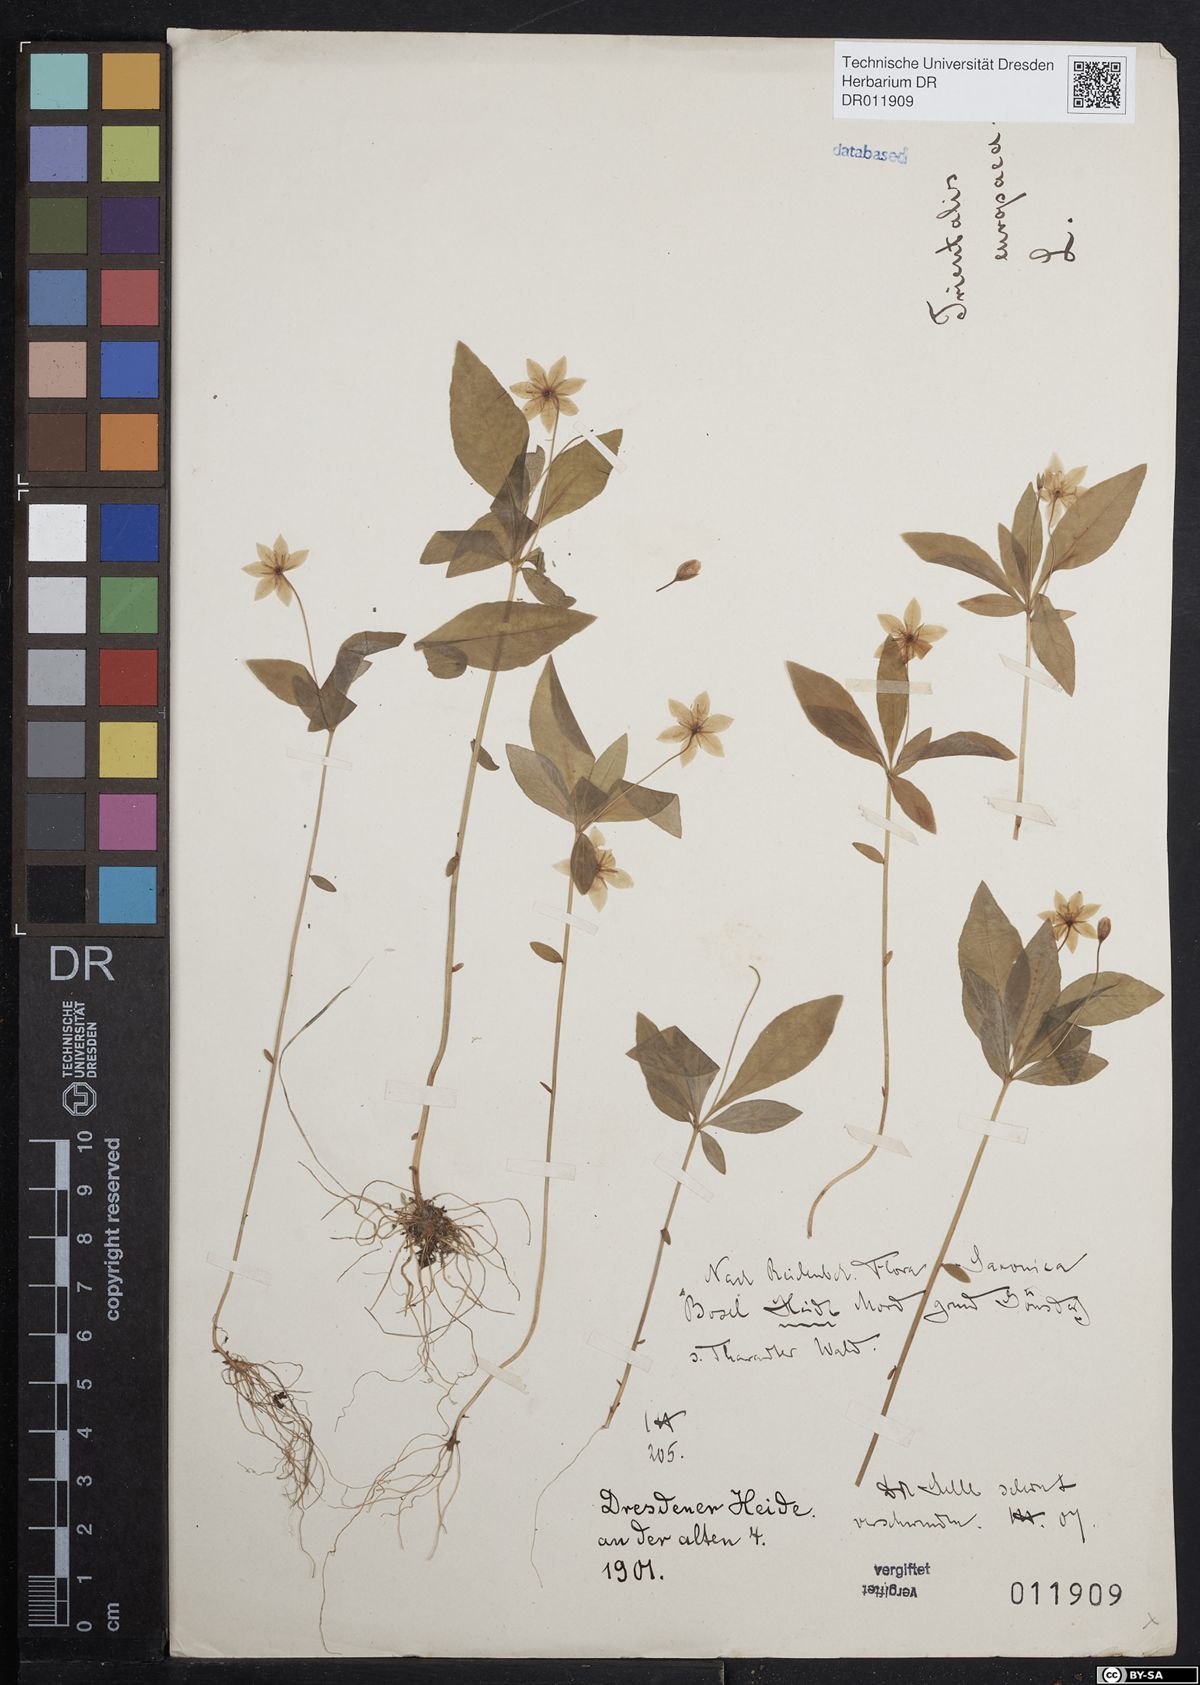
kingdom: Plantae
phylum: Tracheophyta
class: Magnoliopsida
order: Ericales
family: Primulaceae
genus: Lysimachia
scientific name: Lysimachia europaea
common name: Arctic starflower
